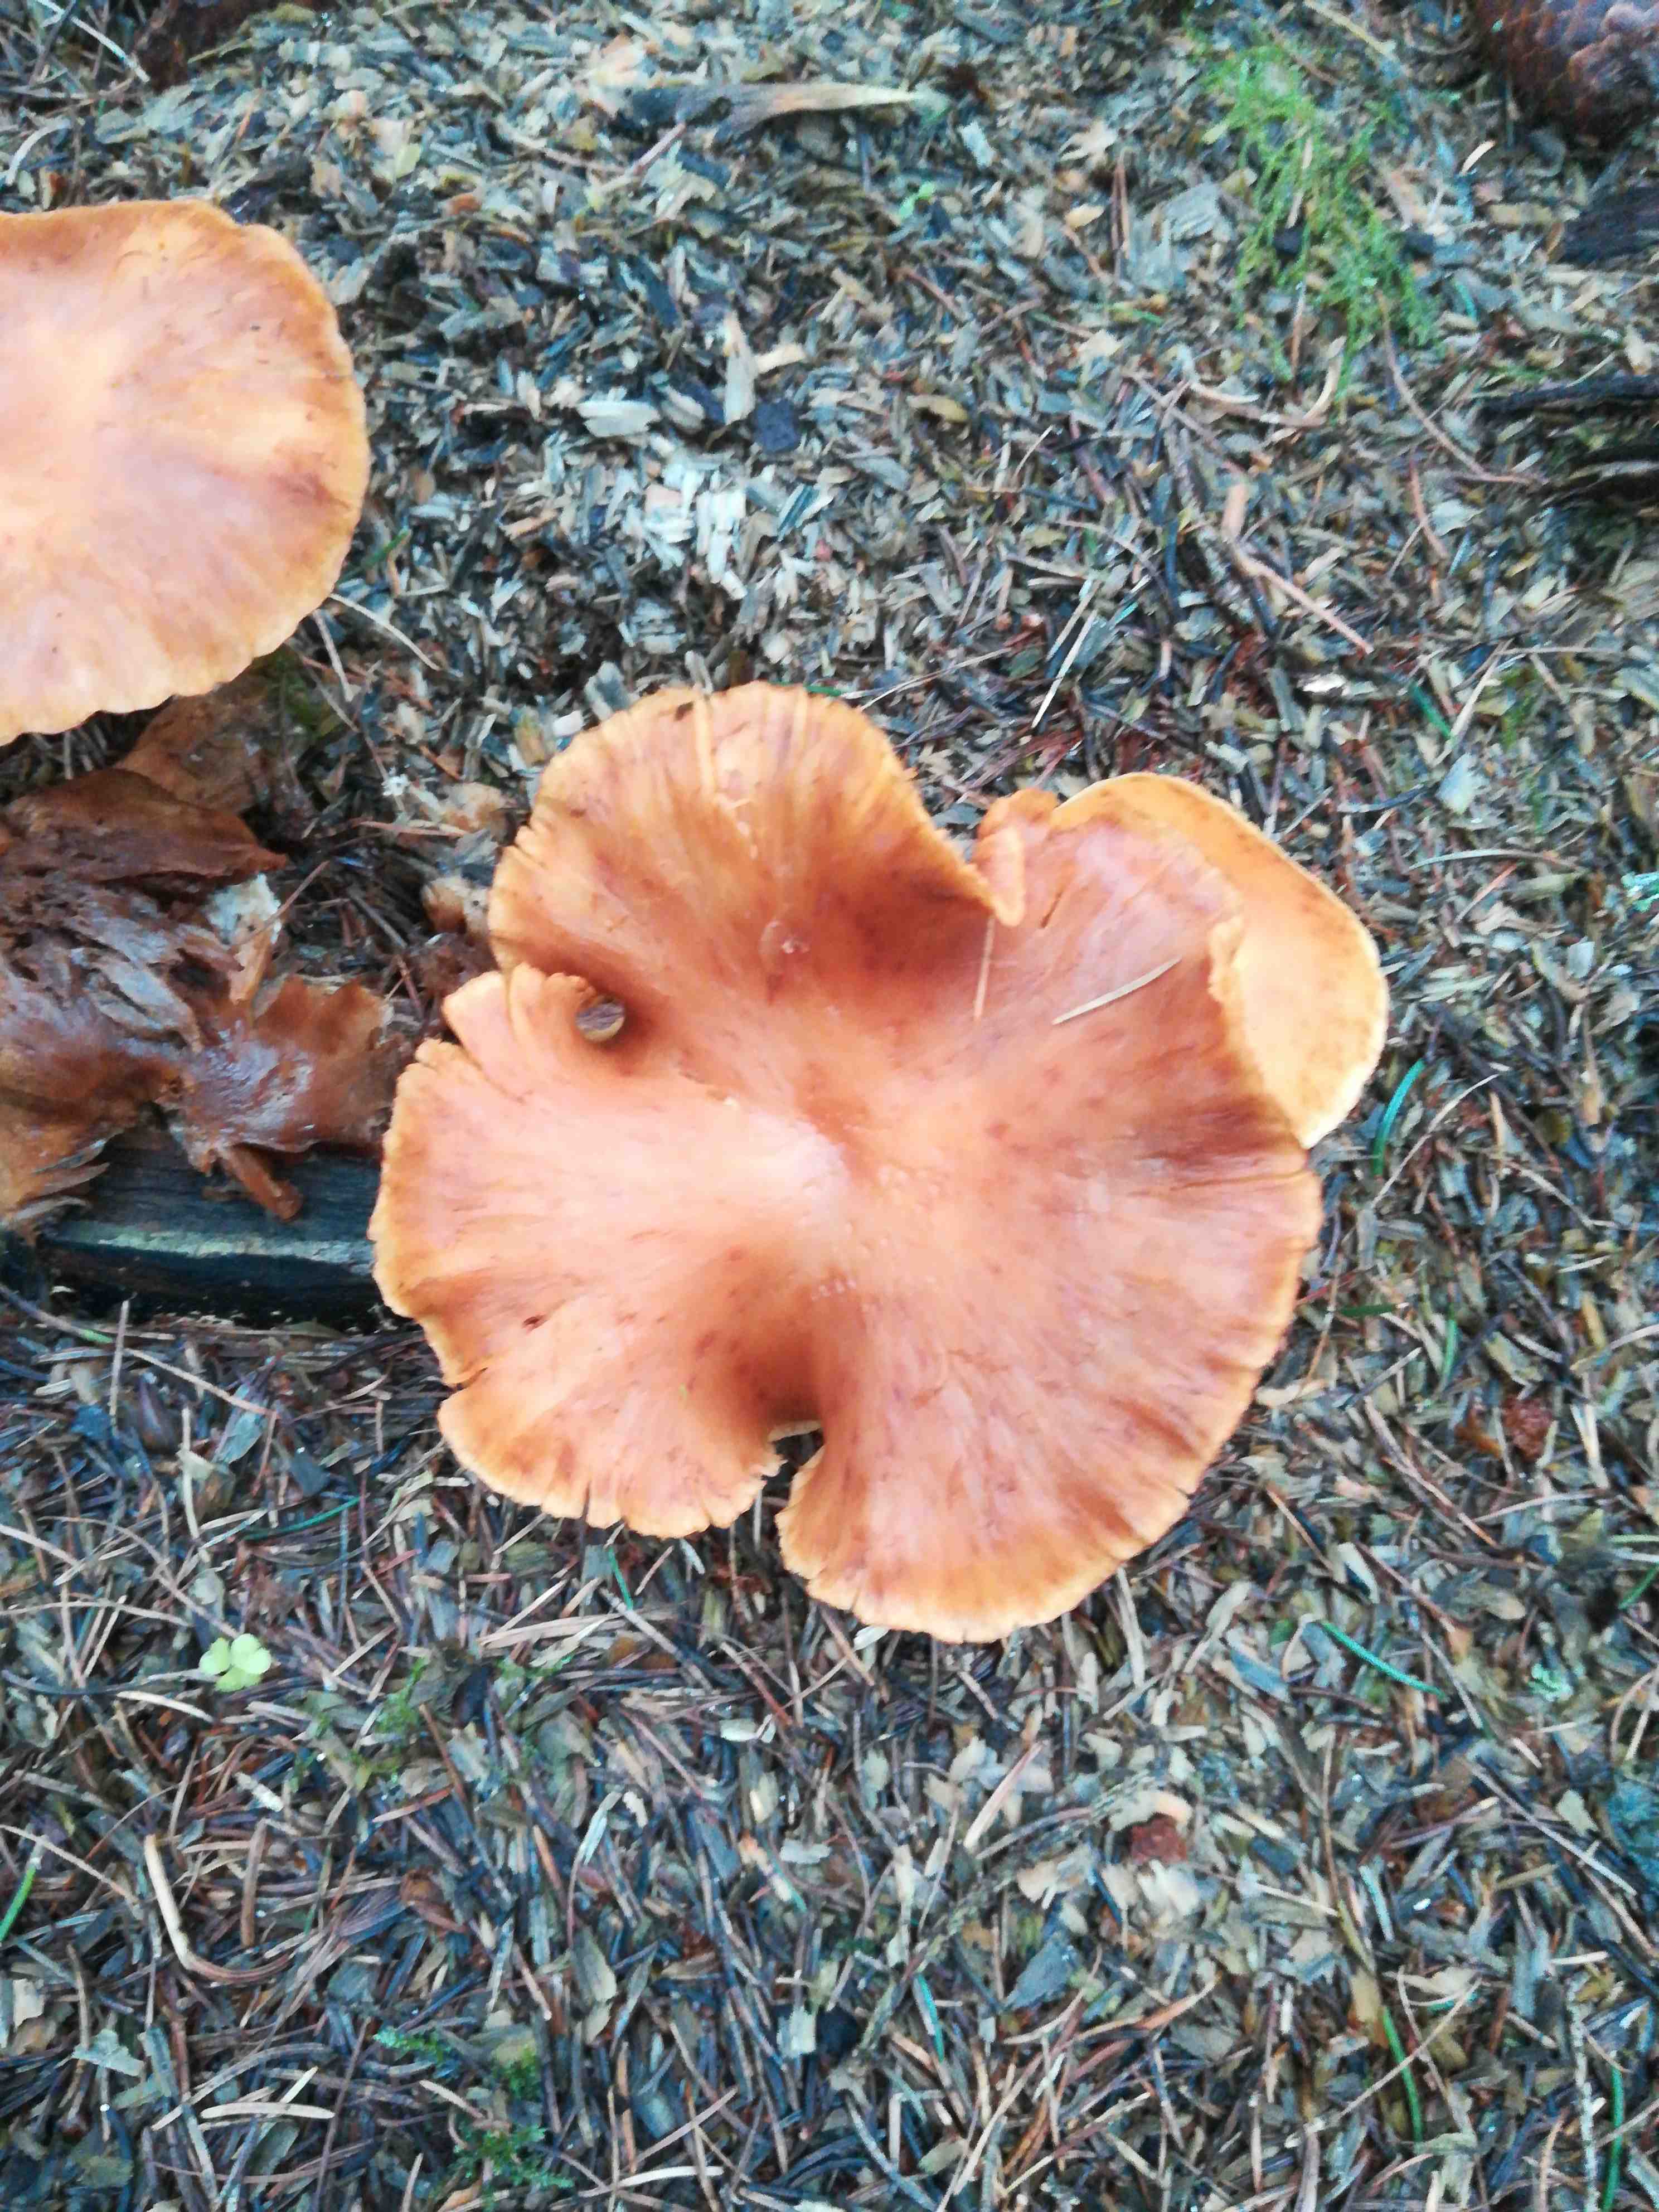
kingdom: Fungi
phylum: Basidiomycota
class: Agaricomycetes
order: Agaricales
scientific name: Agaricales
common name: champignonordenen
